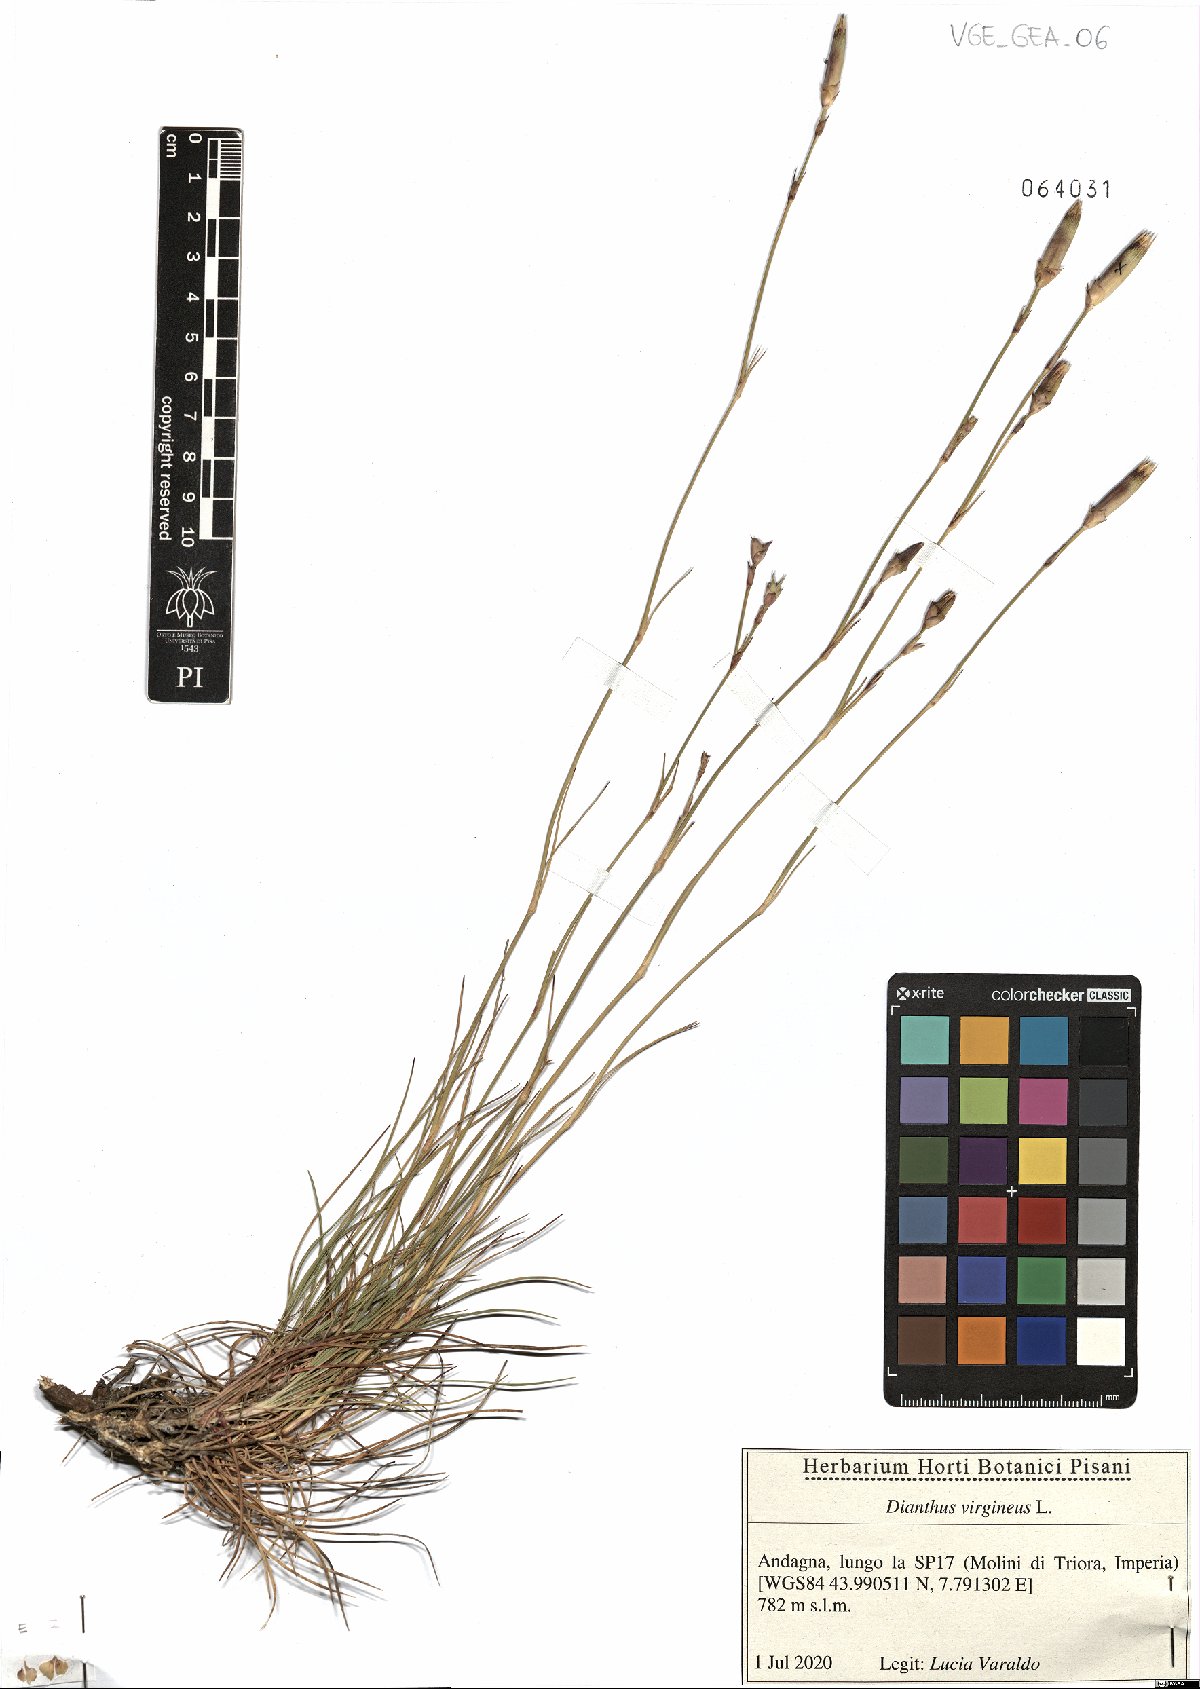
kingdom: Plantae
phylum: Tracheophyta
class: Magnoliopsida
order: Caryophyllales
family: Caryophyllaceae
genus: Dianthus
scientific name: Dianthus virgineus
